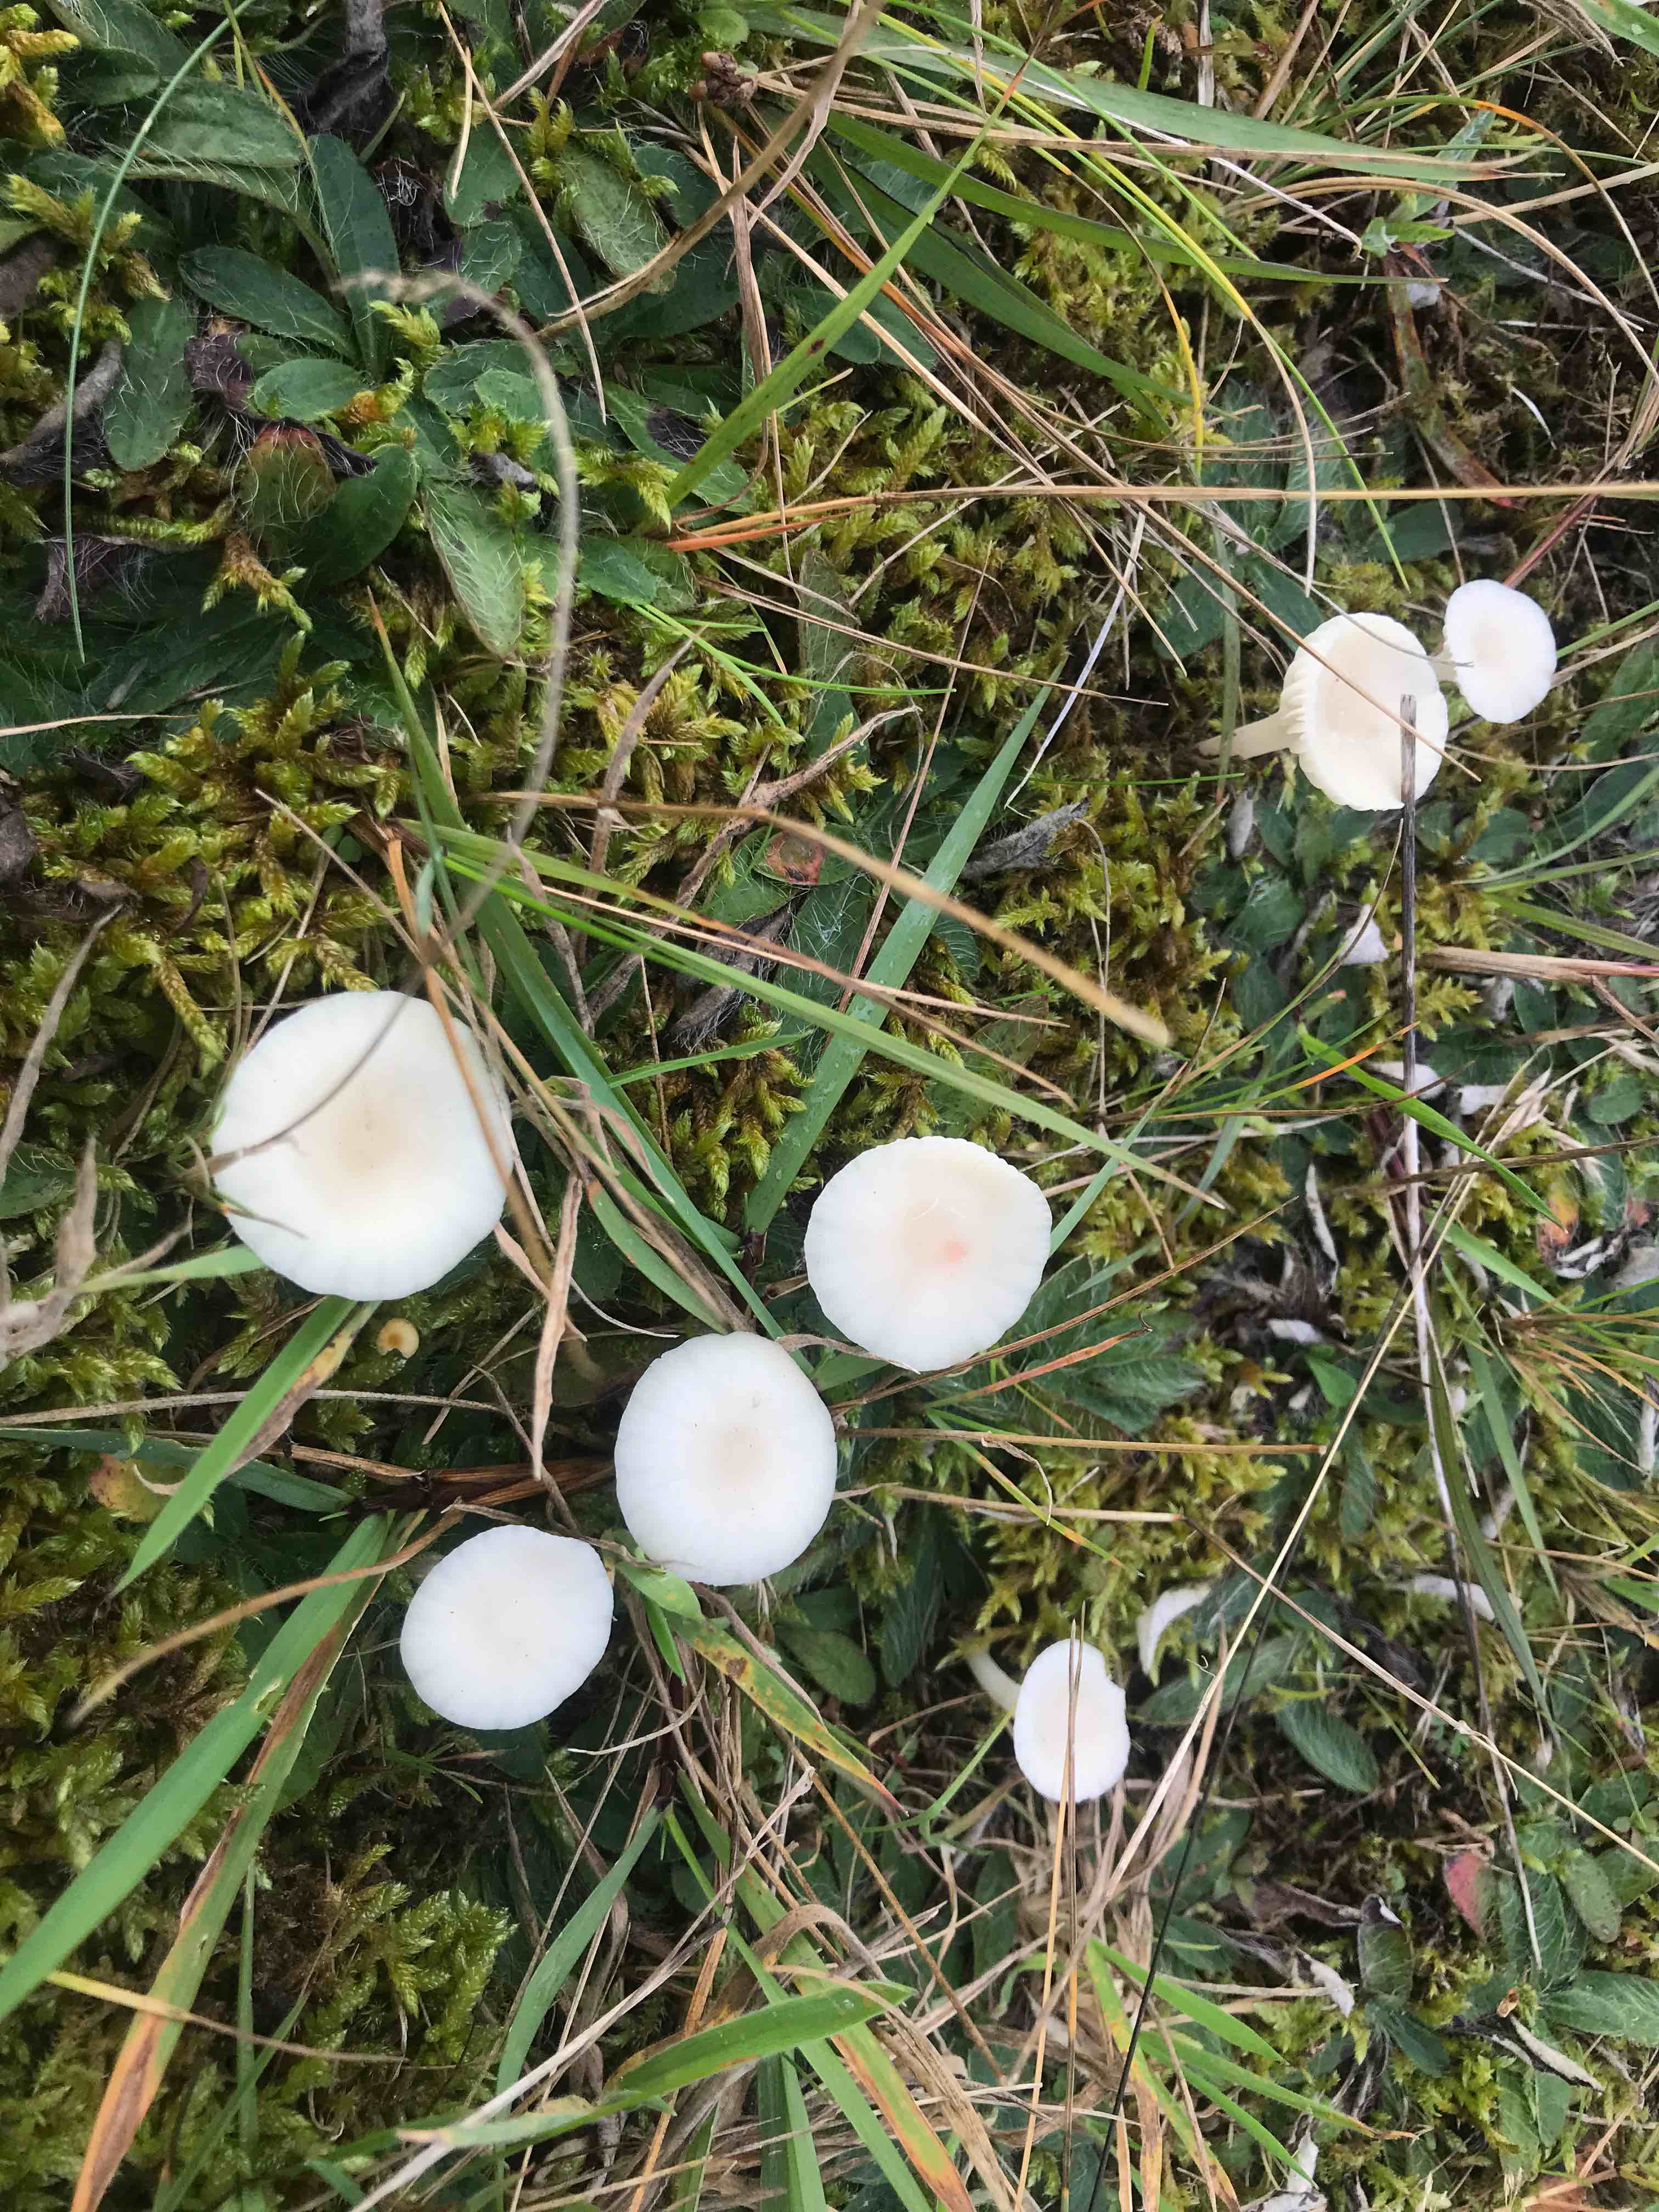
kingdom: Fungi
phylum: Basidiomycota
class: Agaricomycetes
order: Agaricales
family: Hygrophoraceae
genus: Cuphophyllus
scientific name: Cuphophyllus
